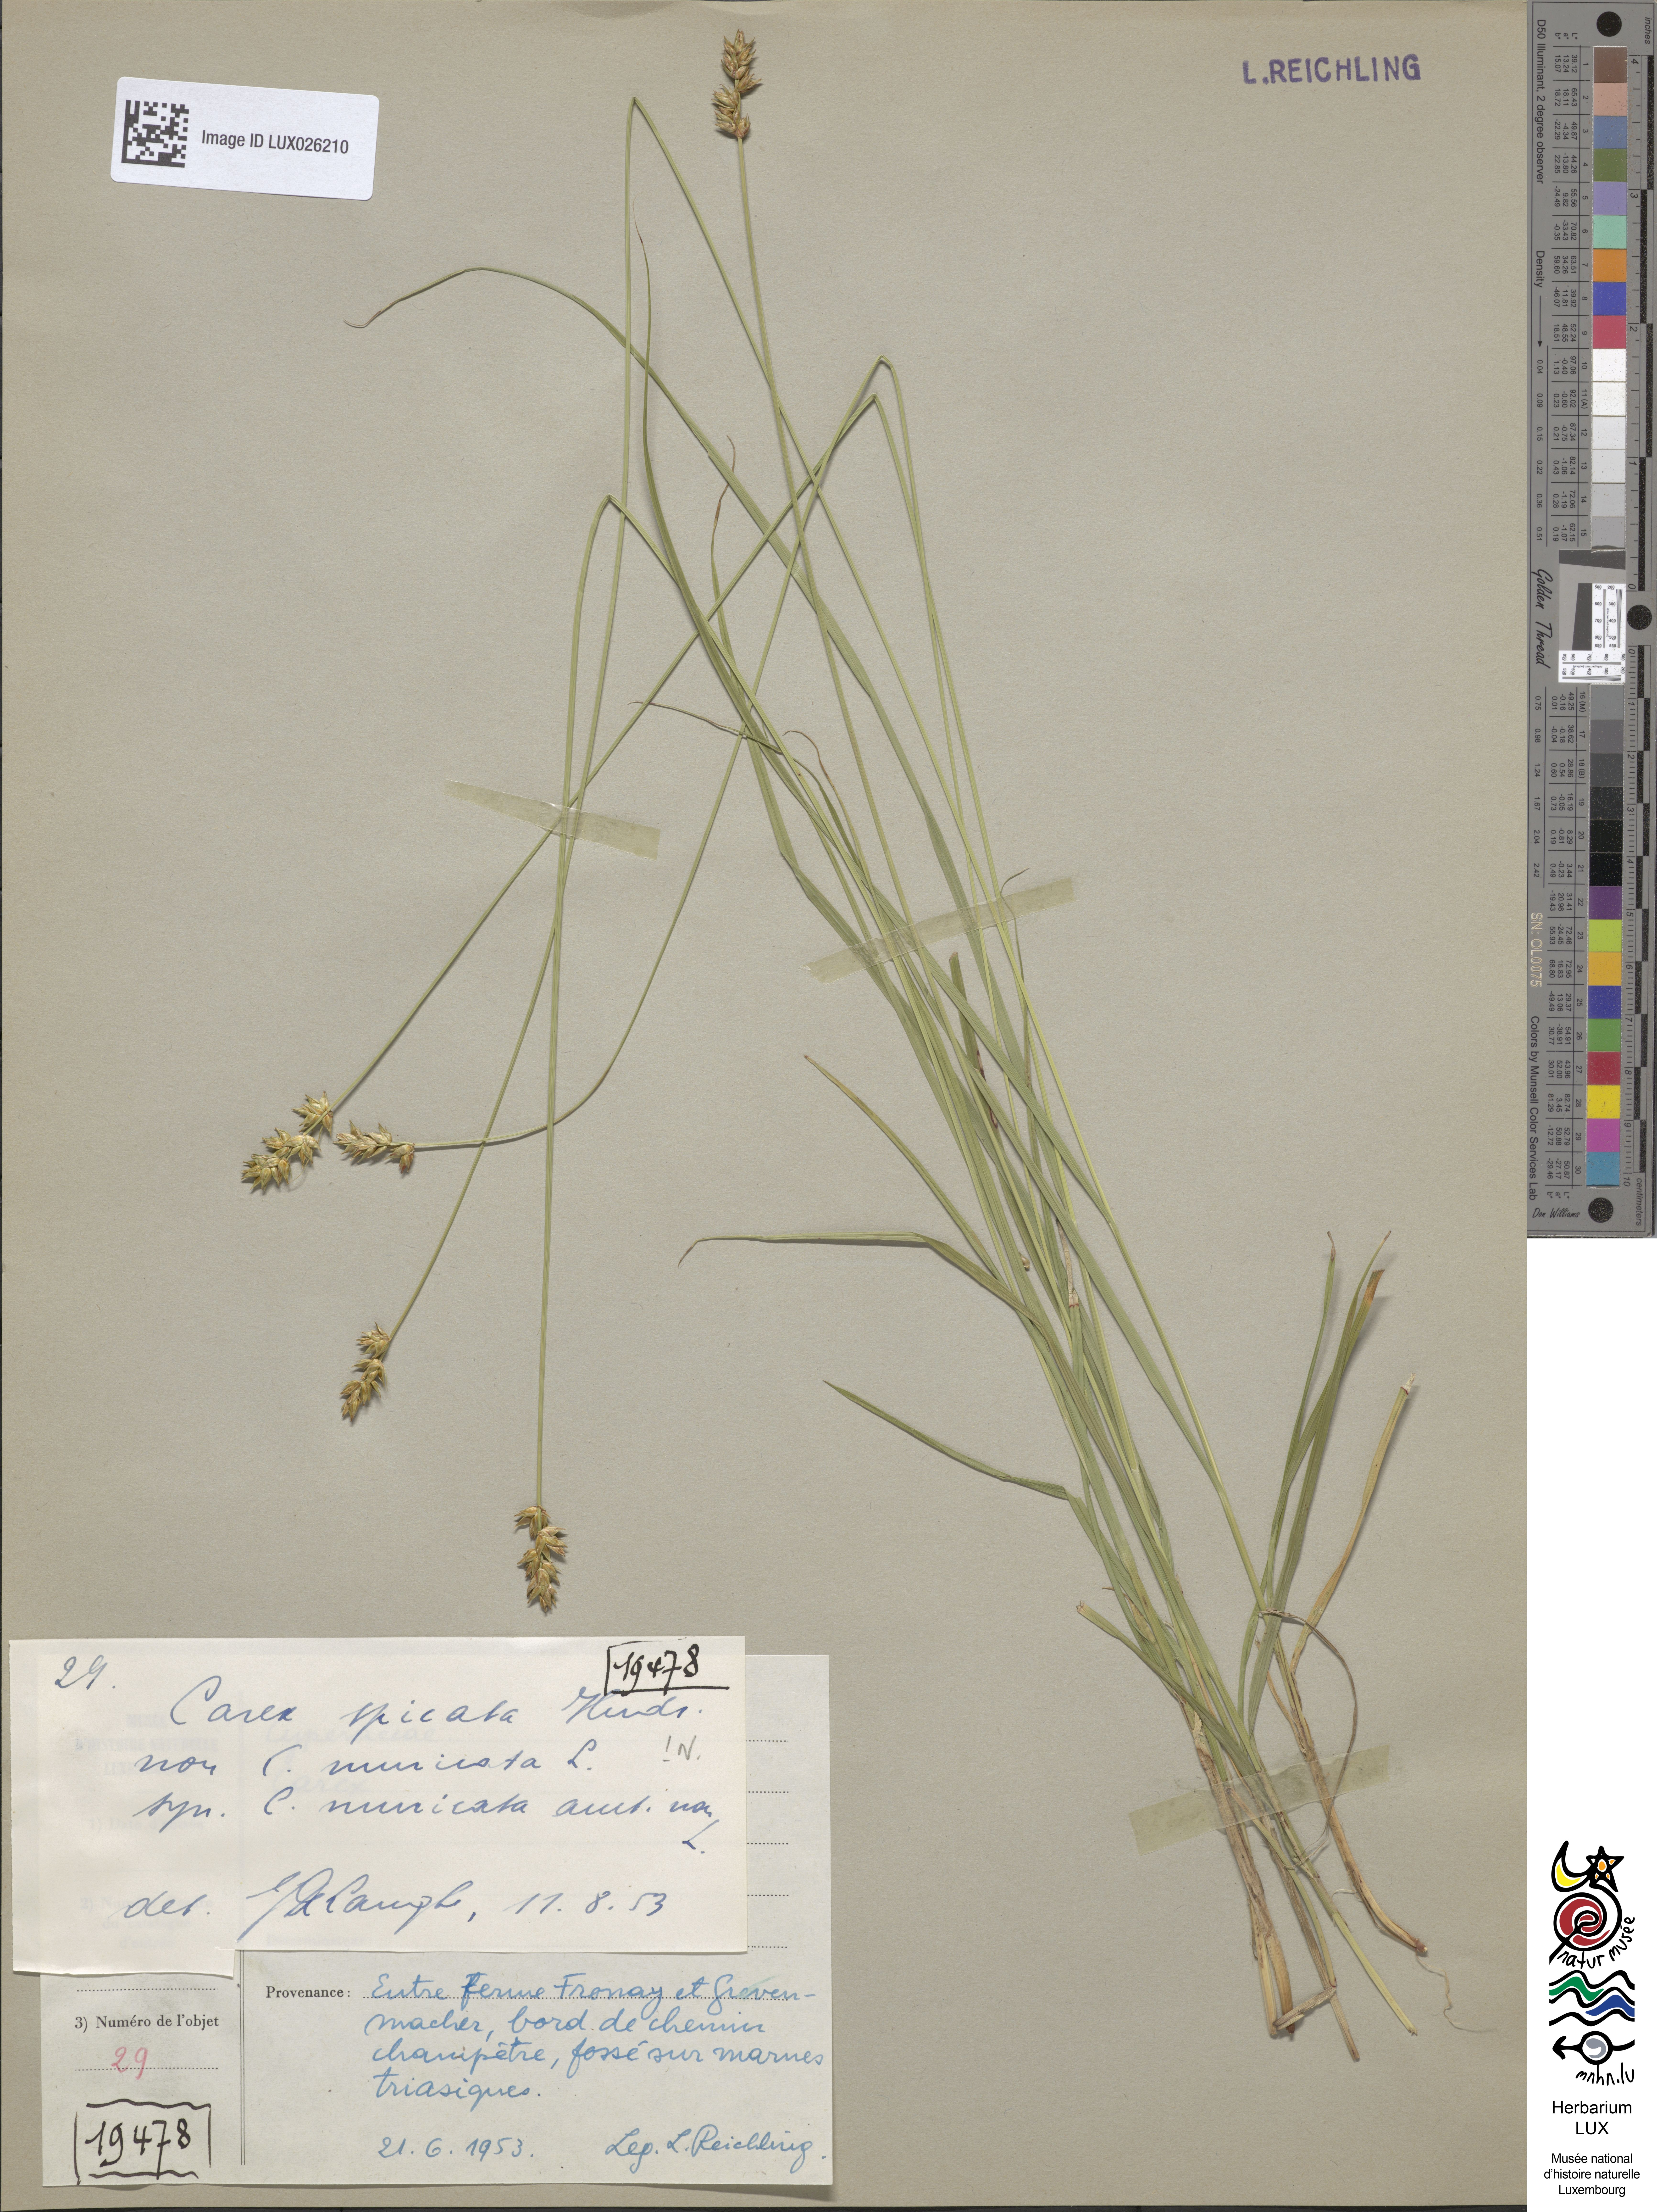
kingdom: Plantae
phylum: Tracheophyta
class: Liliopsida
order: Poales
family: Cyperaceae
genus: Carex
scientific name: Carex spicata
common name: Spiked sedge
